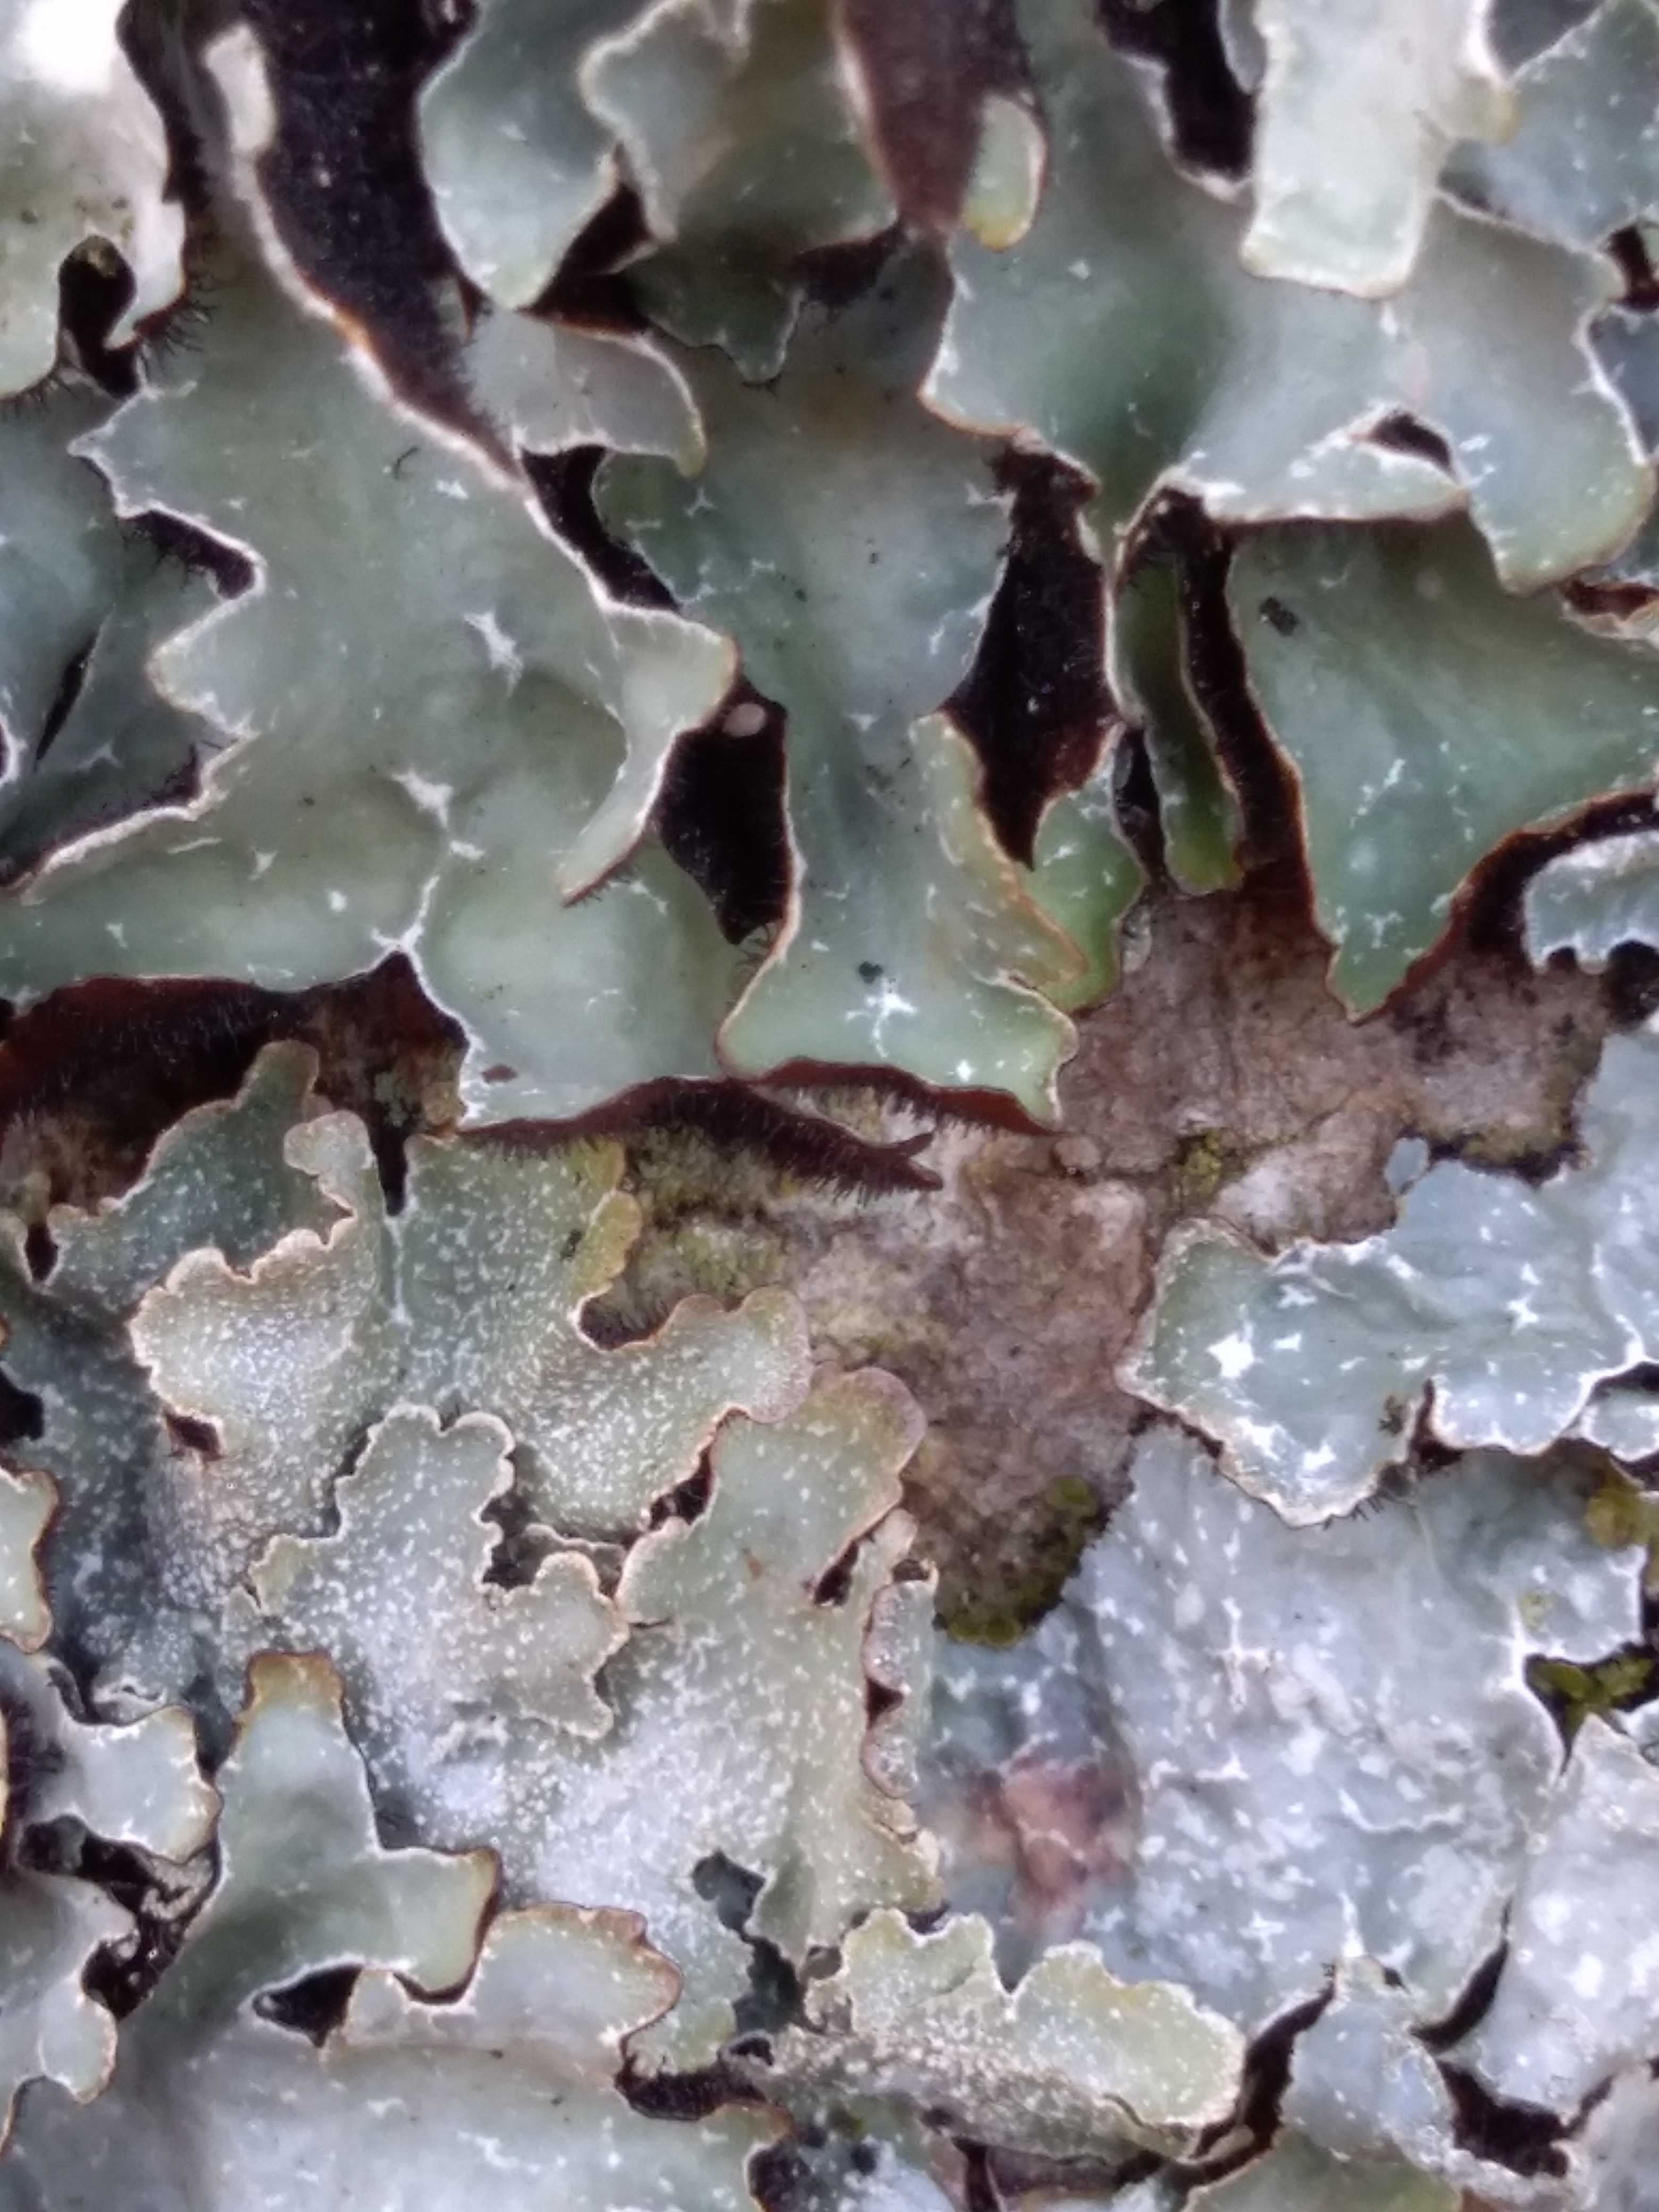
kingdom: Fungi
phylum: Ascomycota
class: Lecanoromycetes
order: Lecanorales
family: Parmeliaceae
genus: Parmelia
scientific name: Parmelia sulcata
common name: rynket skållav
